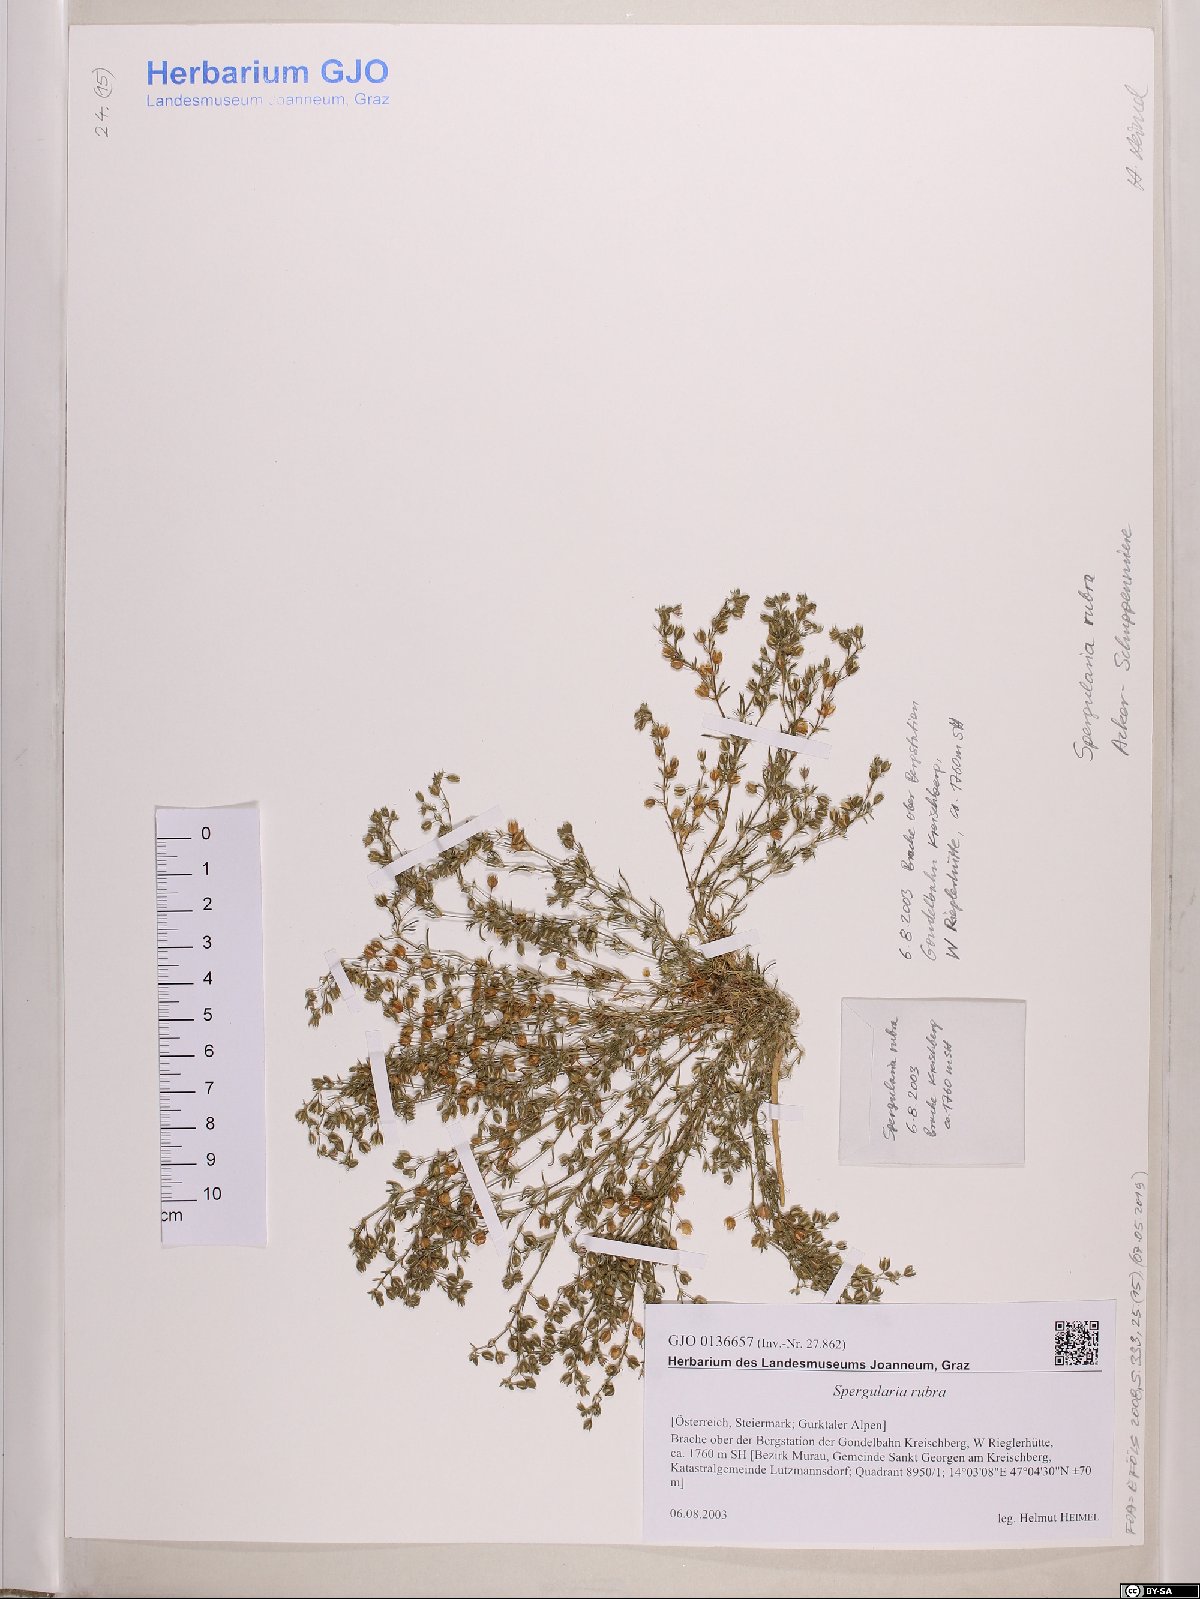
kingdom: Plantae
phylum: Tracheophyta
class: Magnoliopsida
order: Caryophyllales
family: Caryophyllaceae
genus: Spergularia
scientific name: Spergularia rubra
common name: Red sand-spurrey
